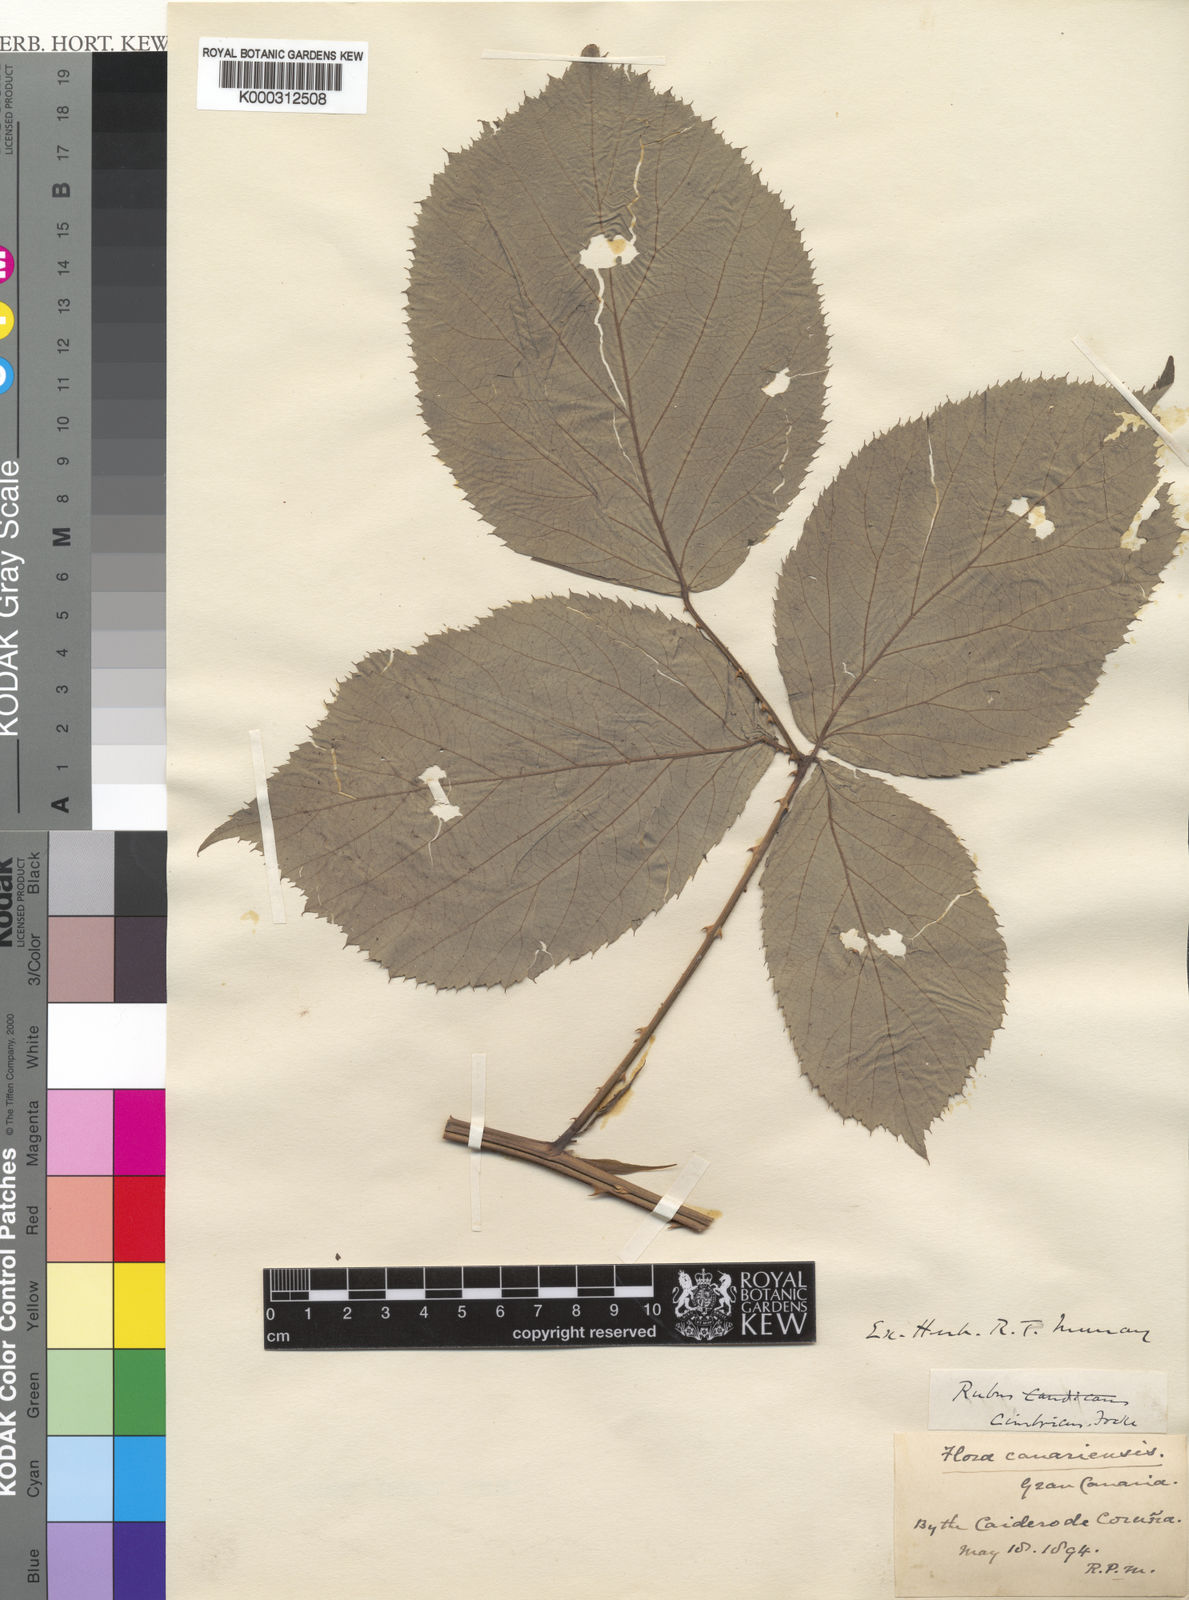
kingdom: Plantae
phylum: Tracheophyta
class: Magnoliopsida
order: Rosales
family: Rosaceae
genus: Rubus
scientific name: Rubus cimbricus
